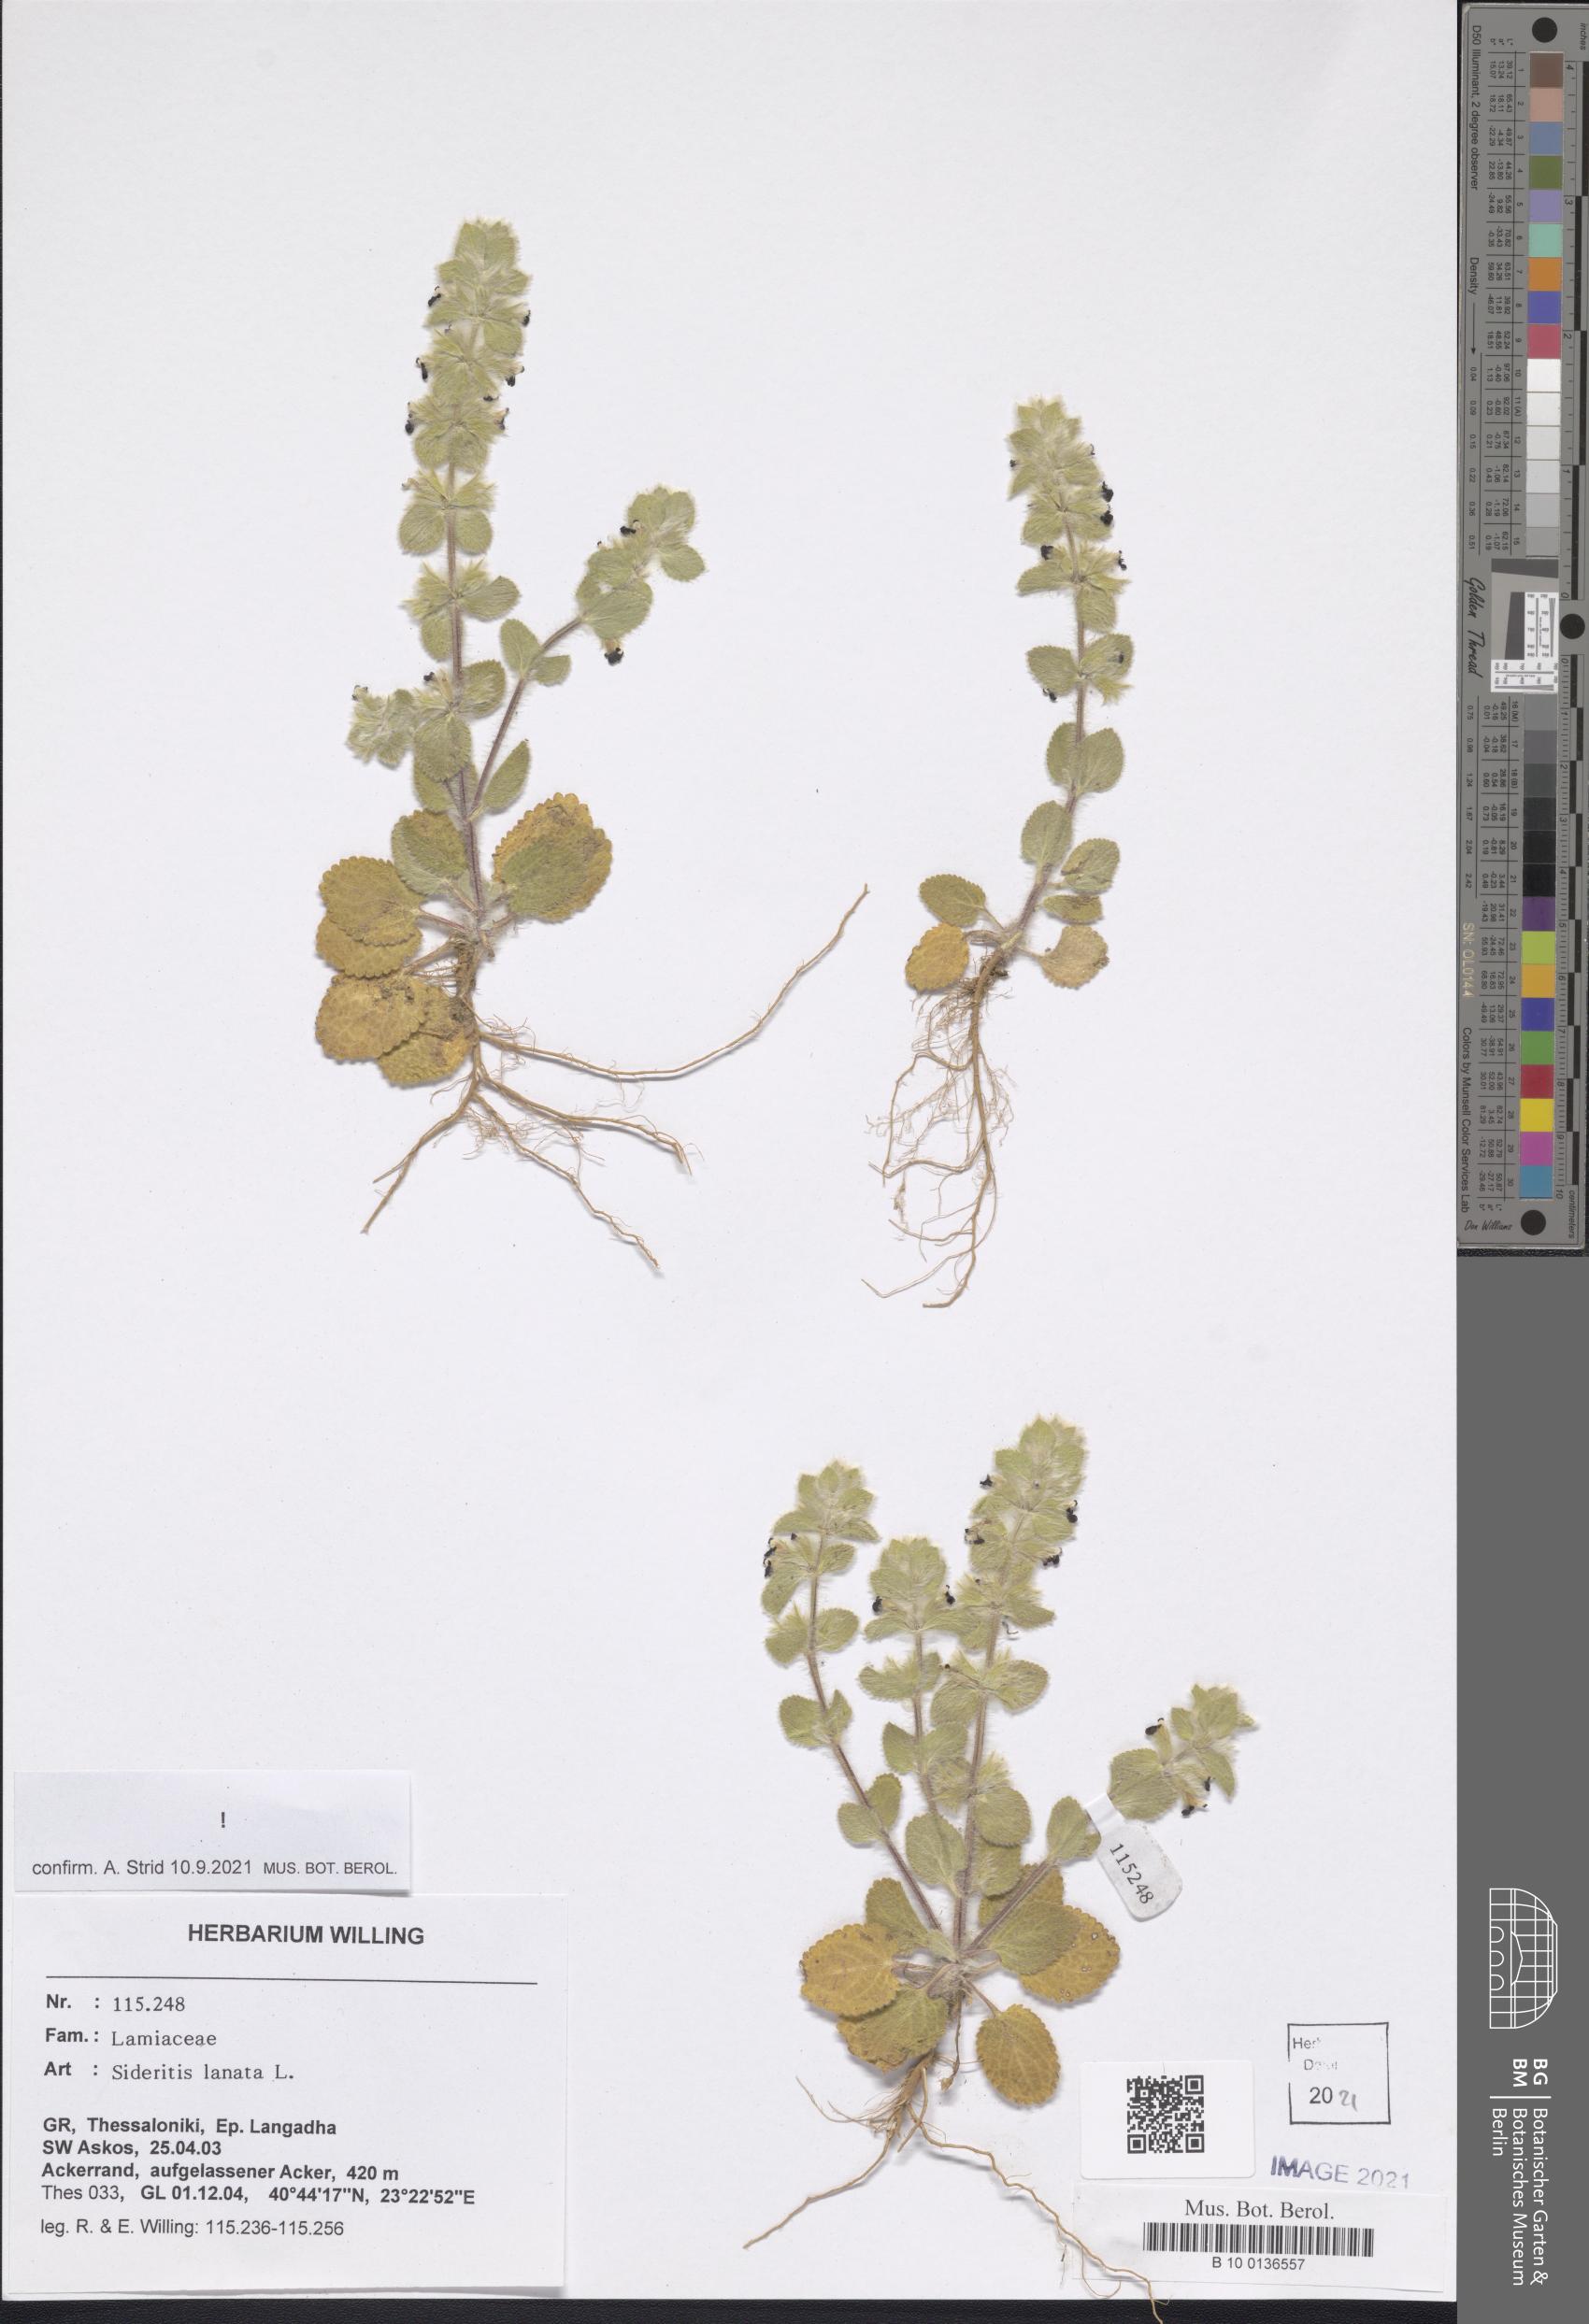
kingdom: Plantae
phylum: Tracheophyta
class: Magnoliopsida
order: Lamiales
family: Lamiaceae
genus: Sideritis
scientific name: Sideritis lanata
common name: Hairy ironwort
